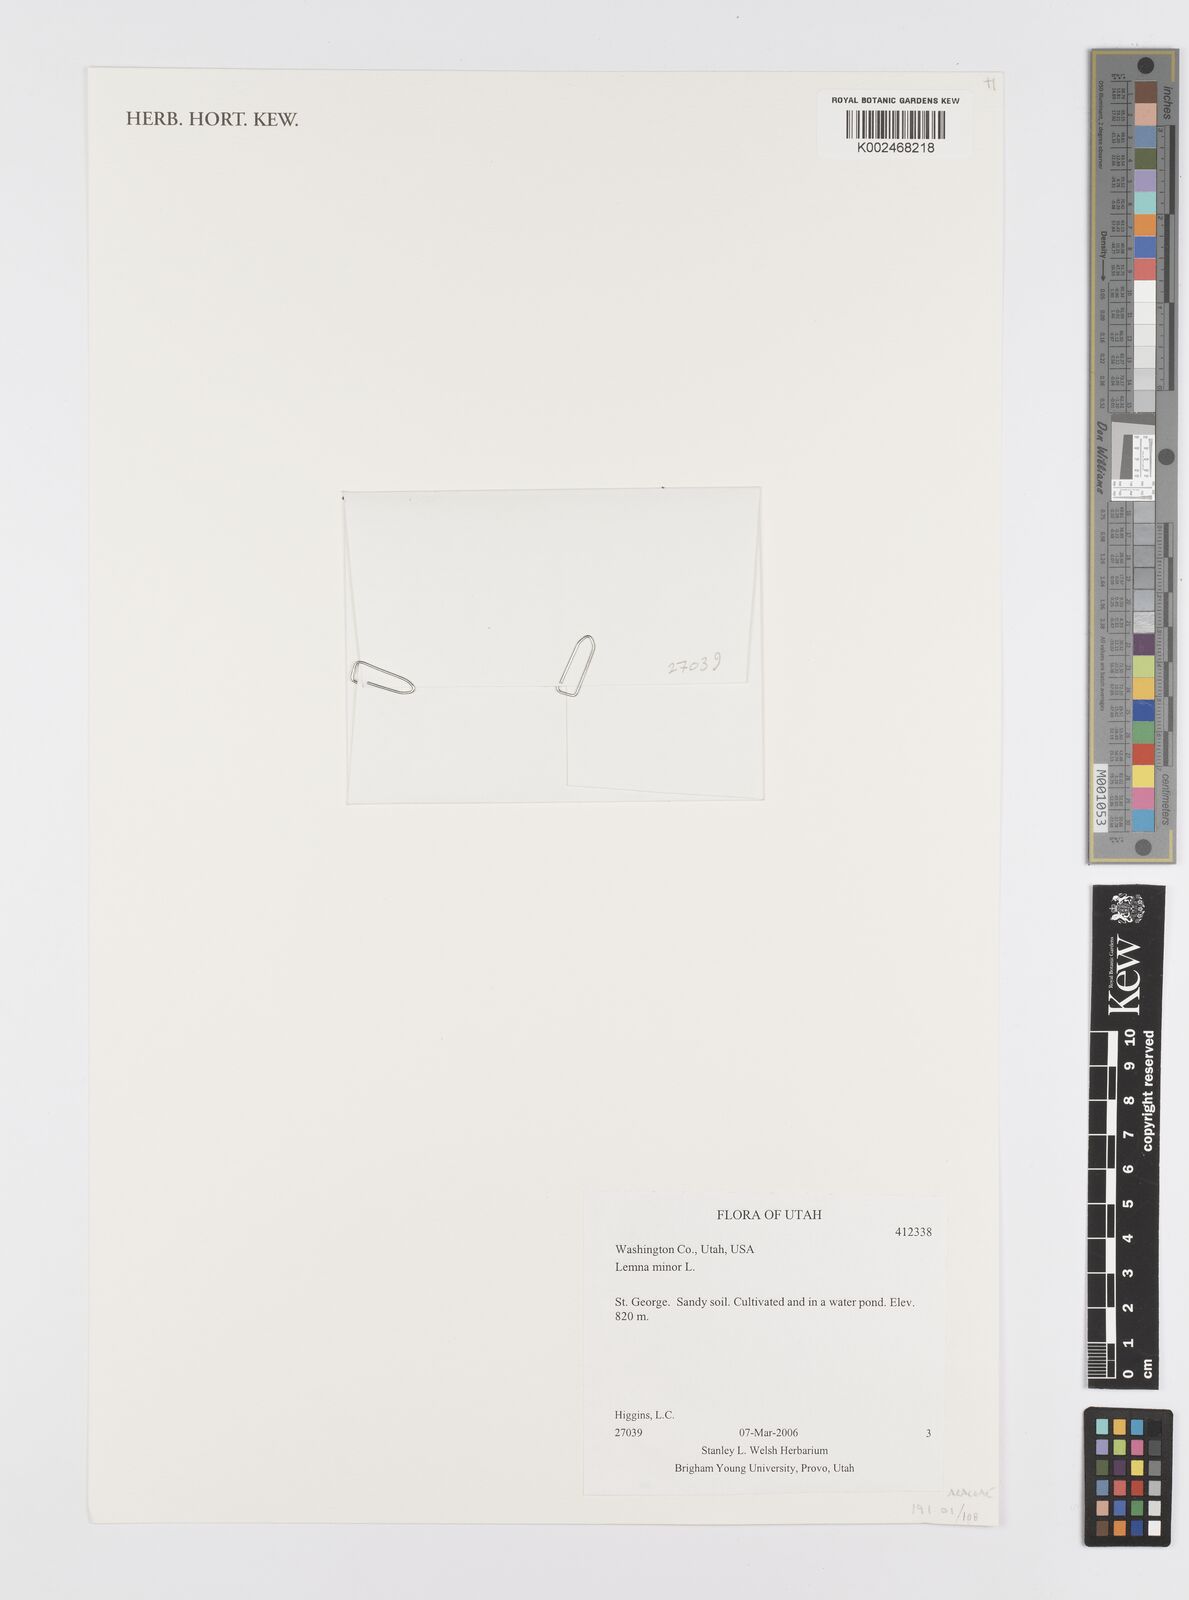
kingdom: Plantae
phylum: Tracheophyta
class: Liliopsida
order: Alismatales
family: Araceae
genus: Lemna
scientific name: Lemna minor
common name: Common duckweed
